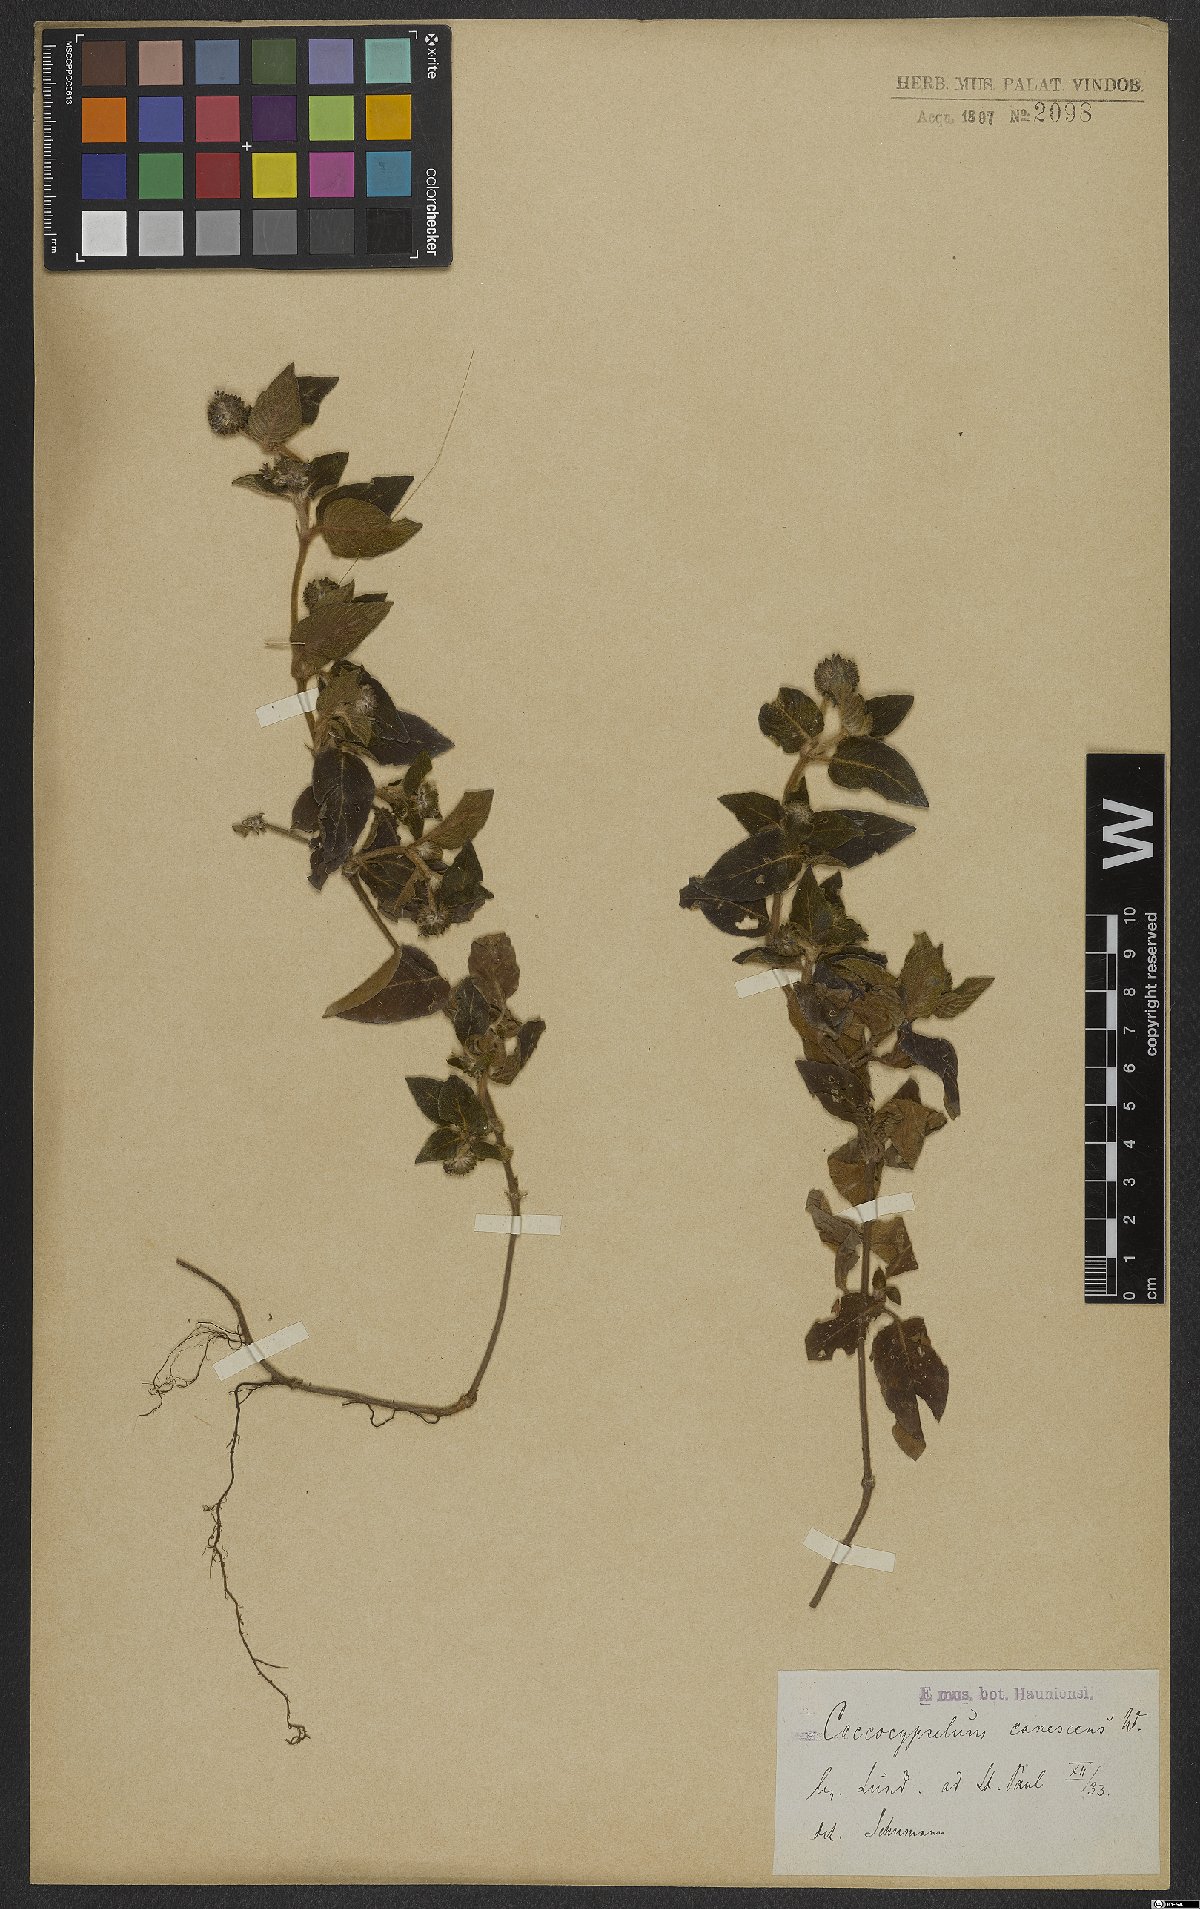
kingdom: Plantae
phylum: Tracheophyta
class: Magnoliopsida
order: Gentianales
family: Rubiaceae
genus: Coccocypselum
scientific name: Coccocypselum lanceolatum
